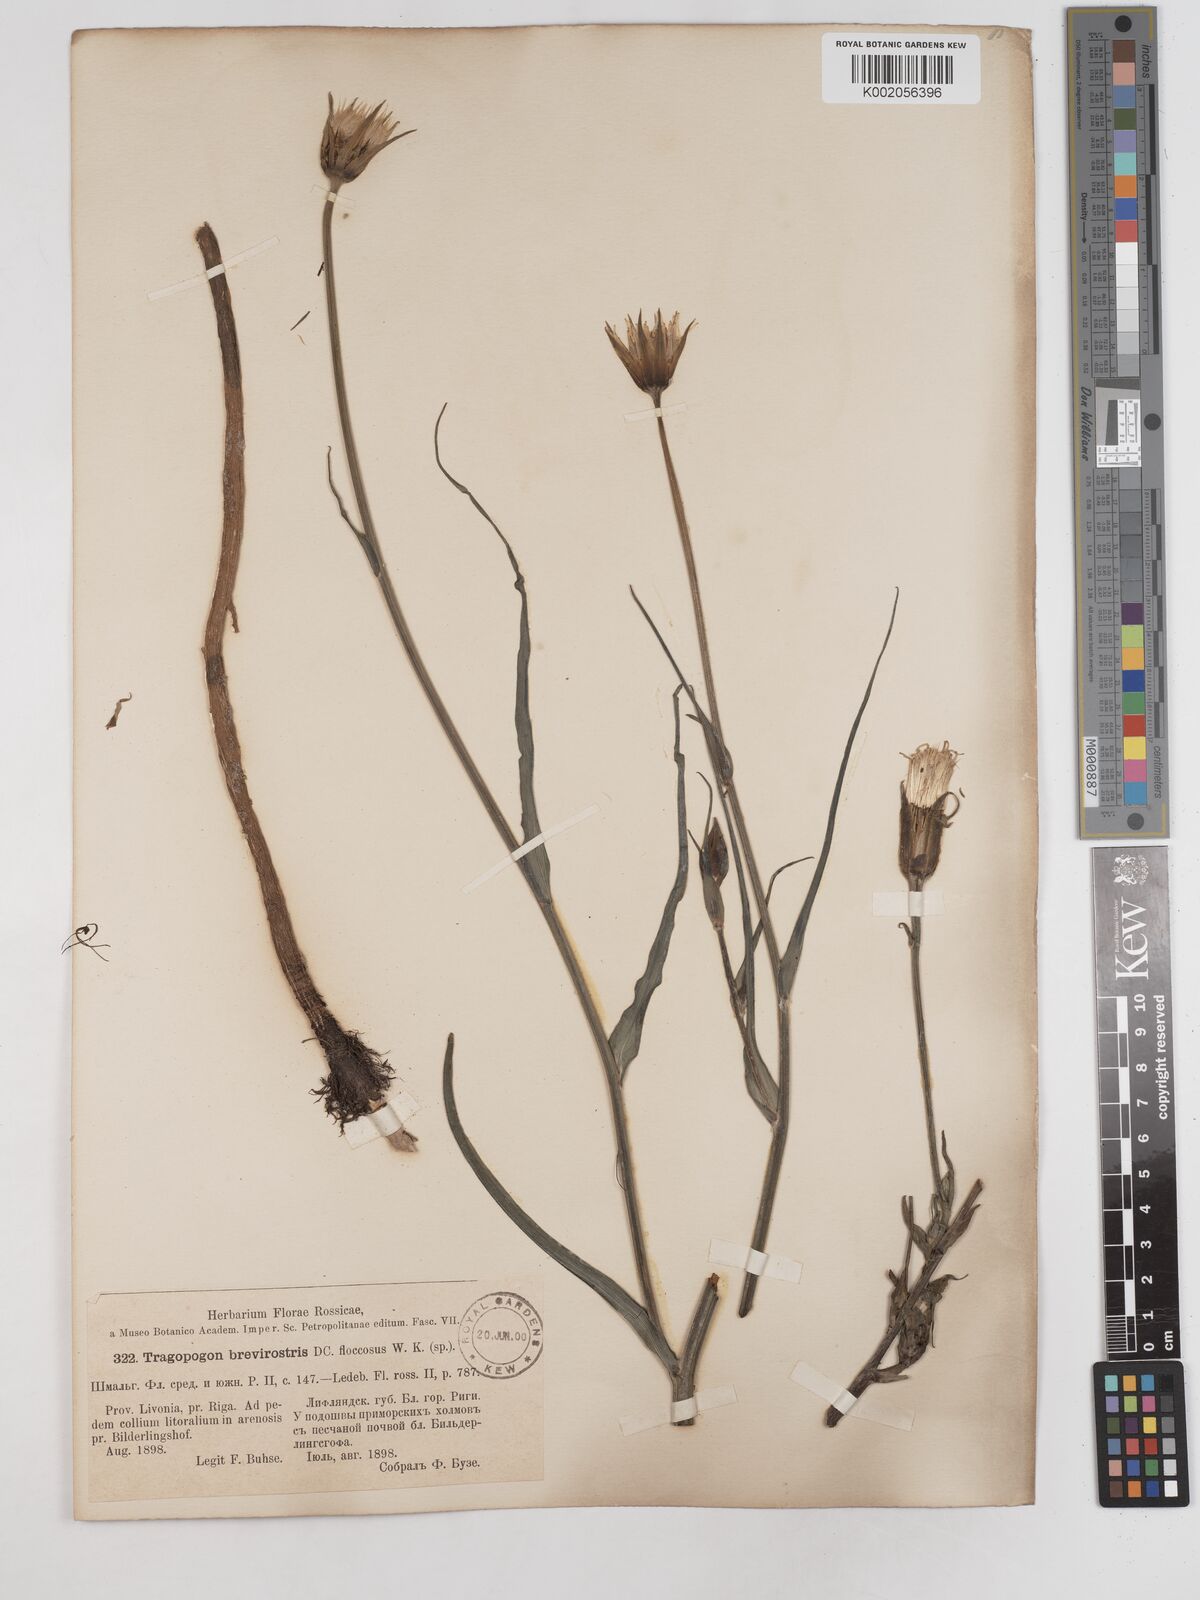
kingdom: Plantae
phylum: Tracheophyta
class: Magnoliopsida
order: Asterales
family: Asteraceae
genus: Tragopogon
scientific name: Tragopogon floccosus
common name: Woolly goatsbeard
